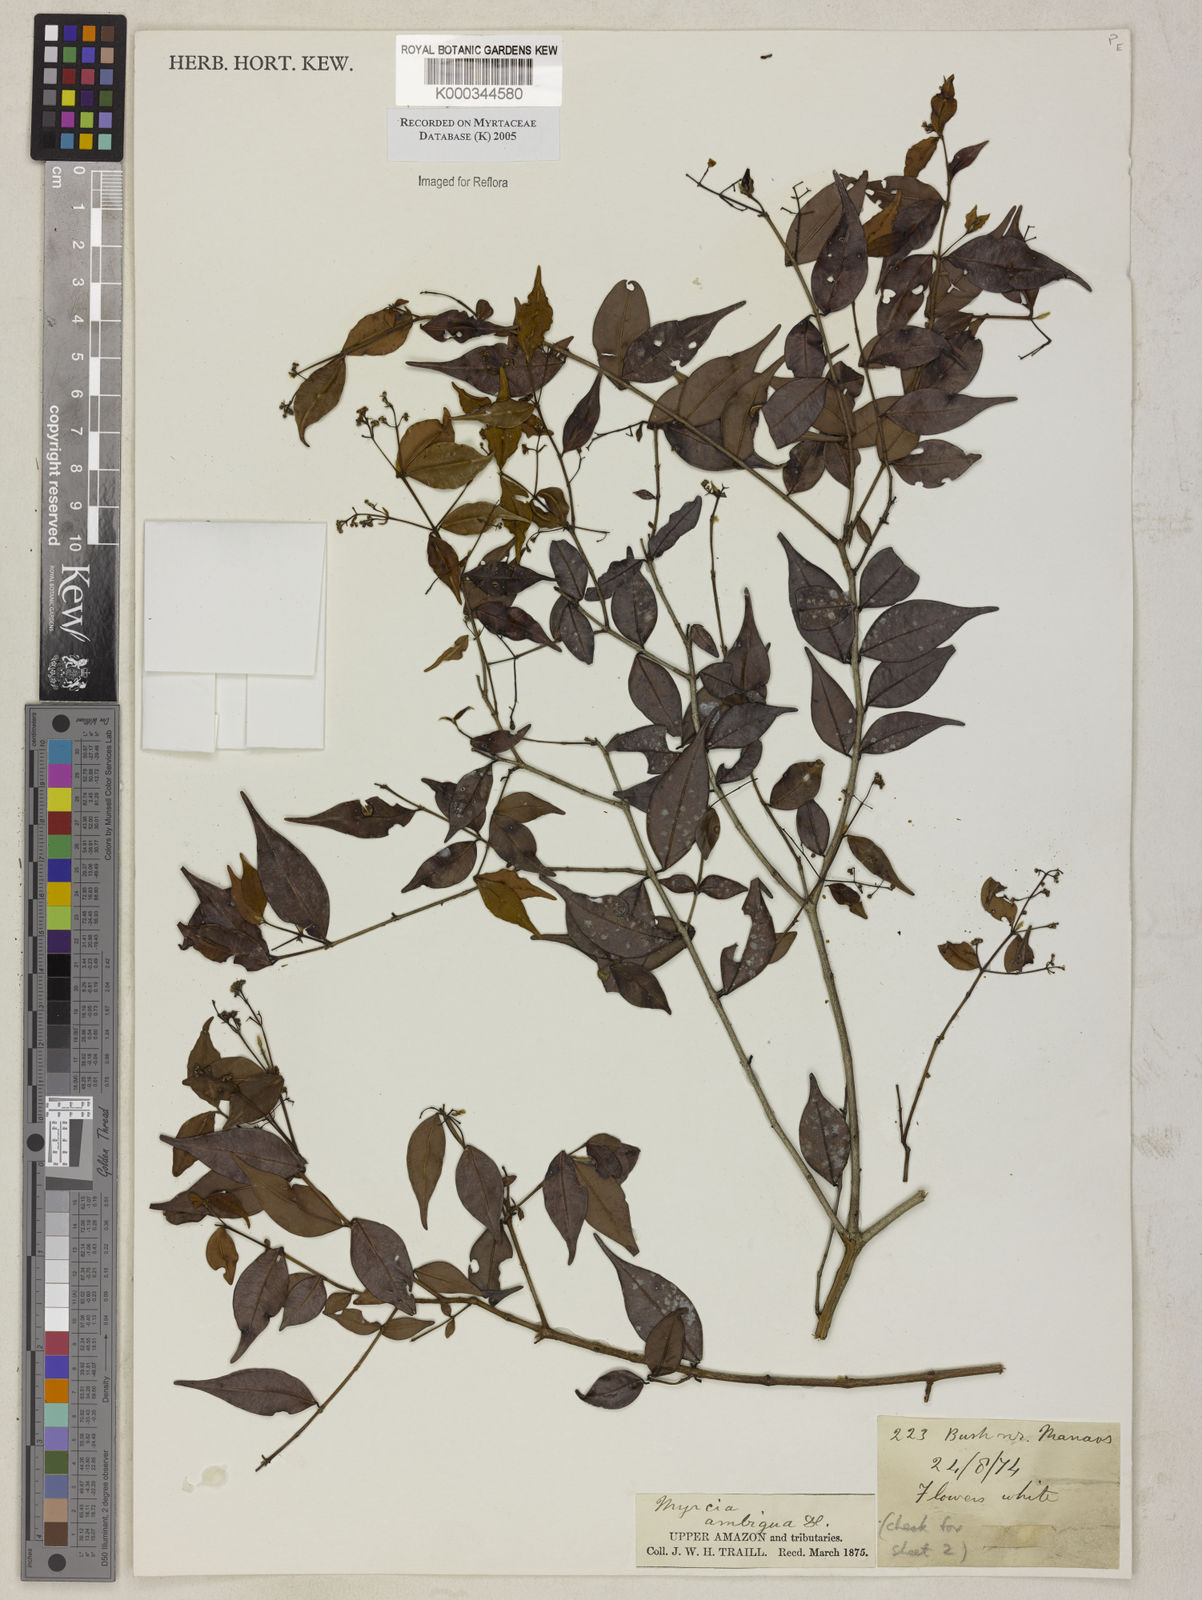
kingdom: Plantae
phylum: Tracheophyta
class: Magnoliopsida
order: Myrtales
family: Myrtaceae
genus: Myrcia
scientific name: Myrcia sylvatica
